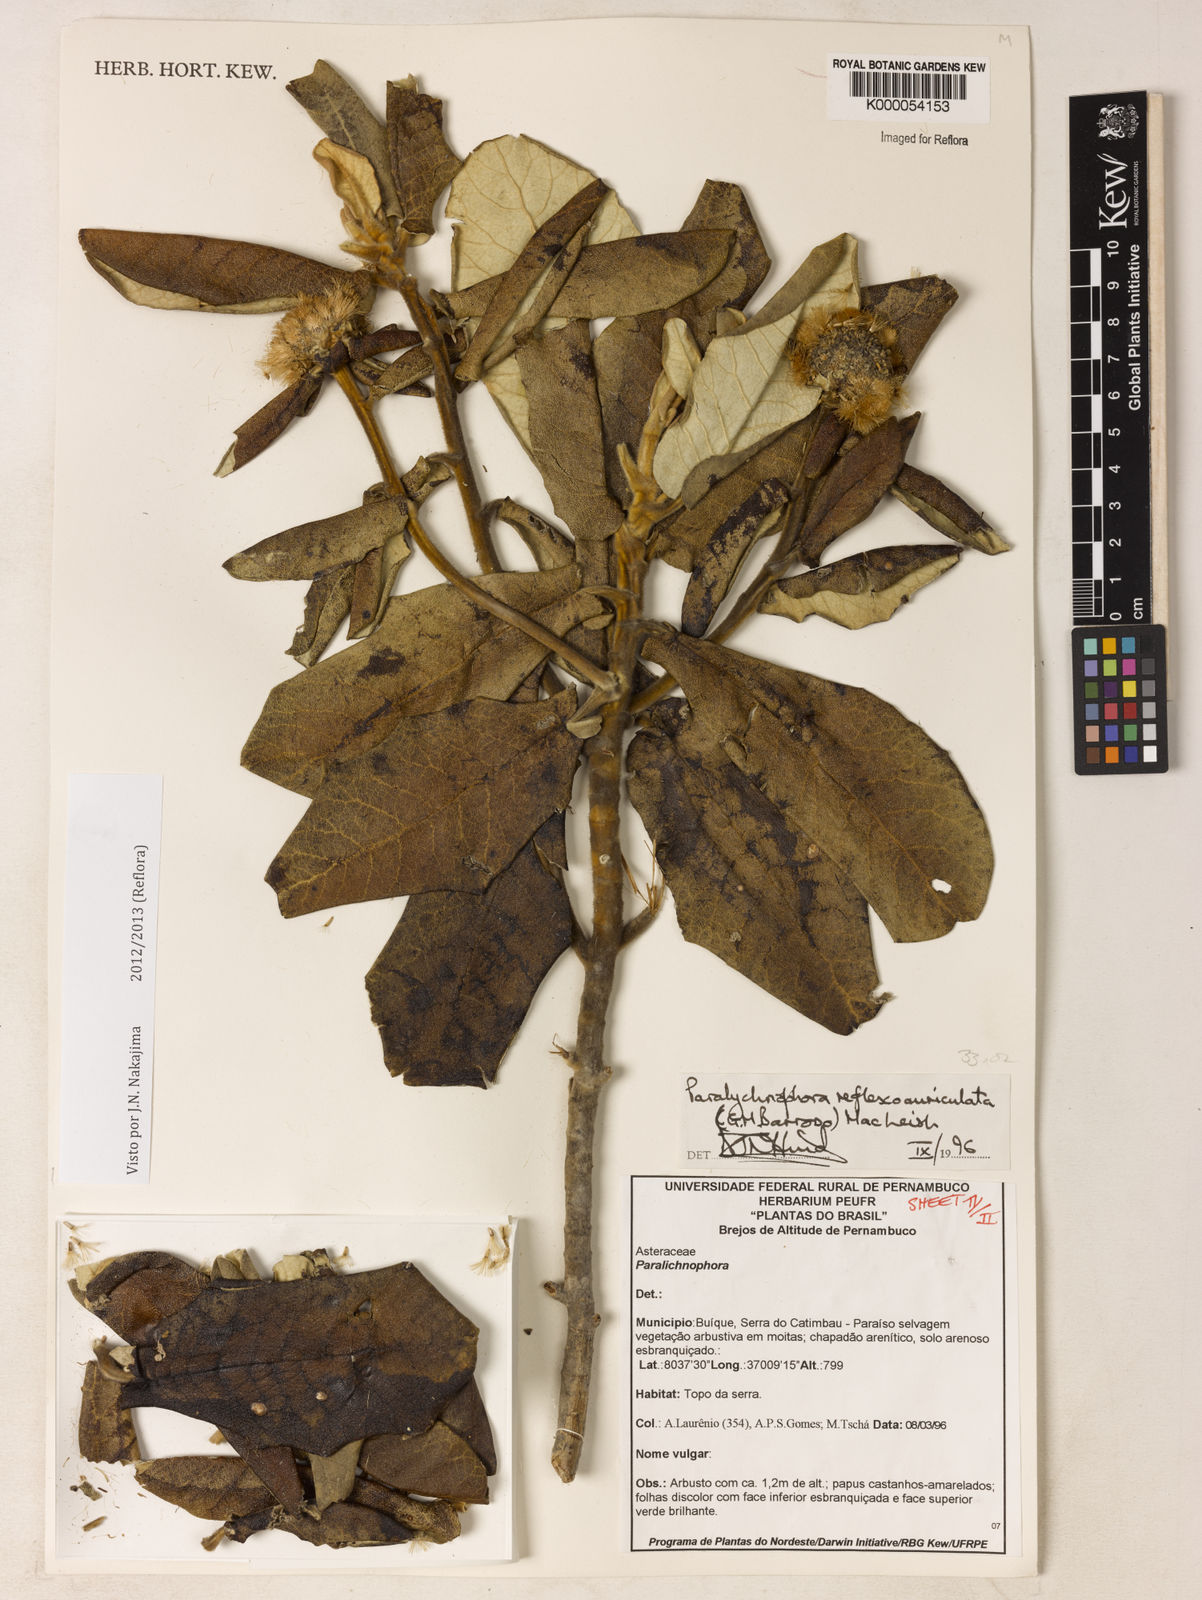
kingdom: Plantae
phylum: Tracheophyta
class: Magnoliopsida
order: Asterales
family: Asteraceae
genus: Paralychnophora
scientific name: Paralychnophora reflexoauriculata
